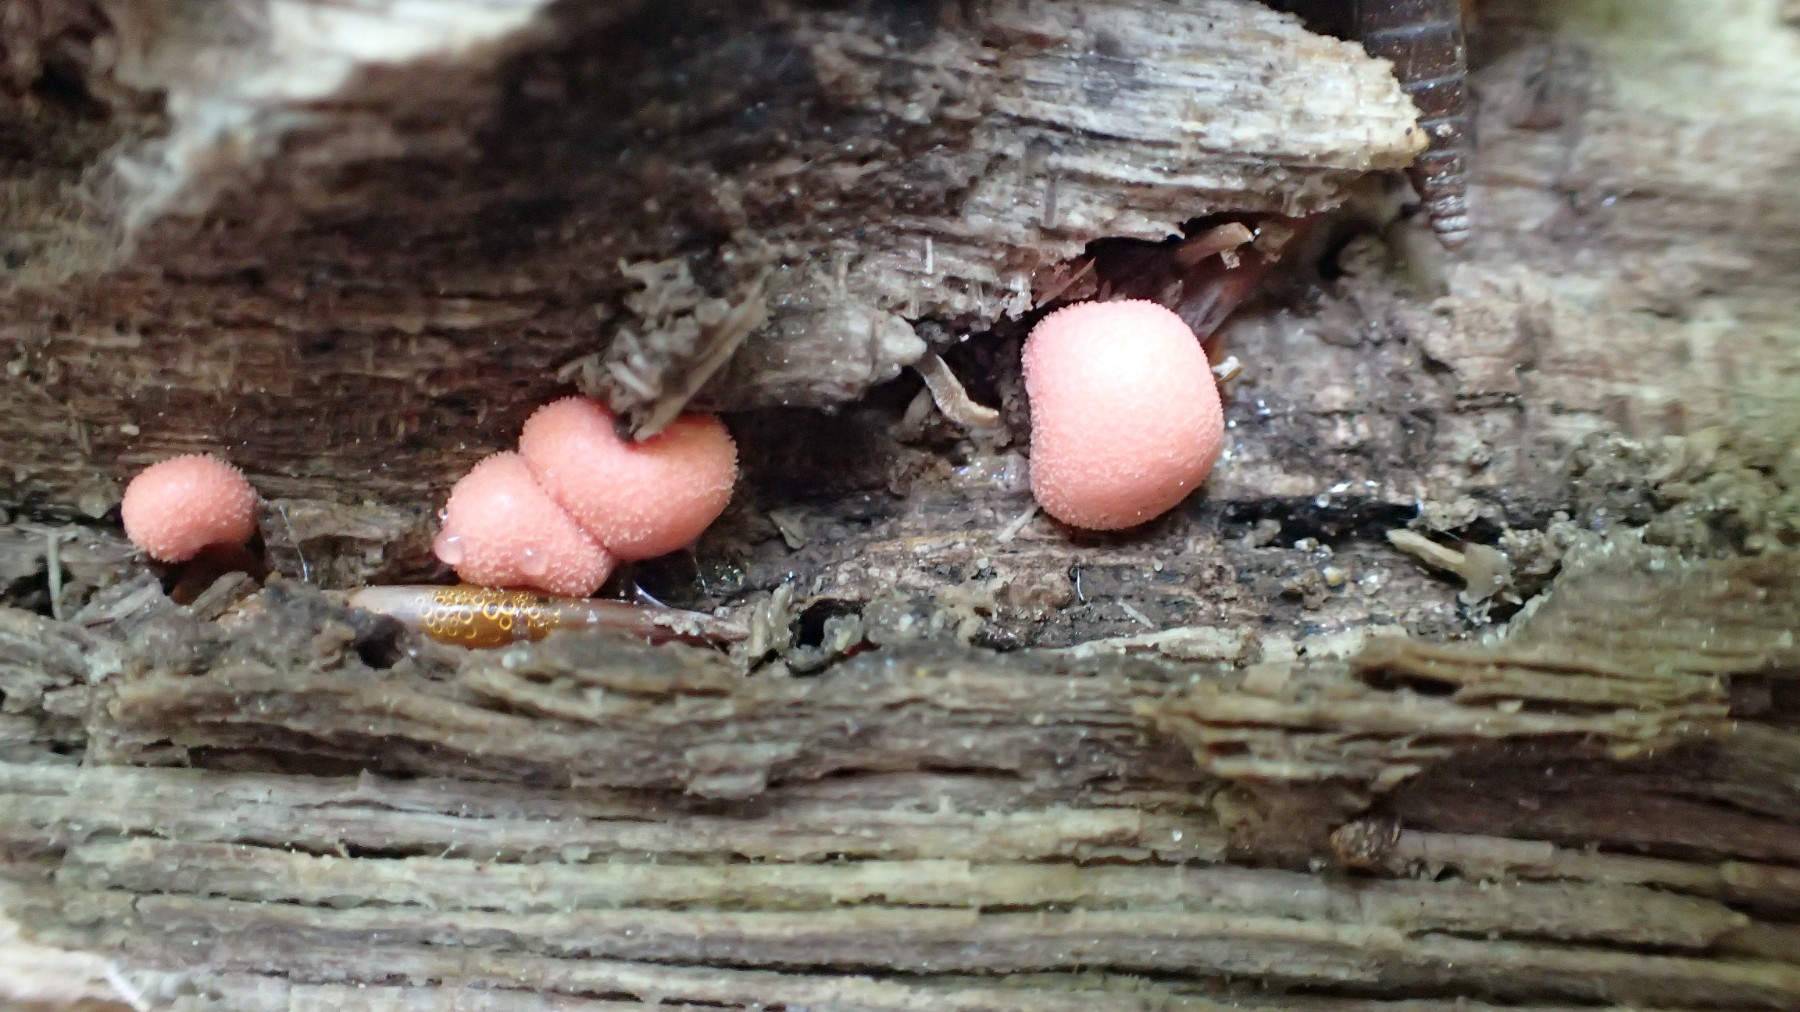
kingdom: Protozoa
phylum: Mycetozoa
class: Myxomycetes
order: Cribrariales
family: Tubiferaceae
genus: Lycogala
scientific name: Lycogala epidendrum
